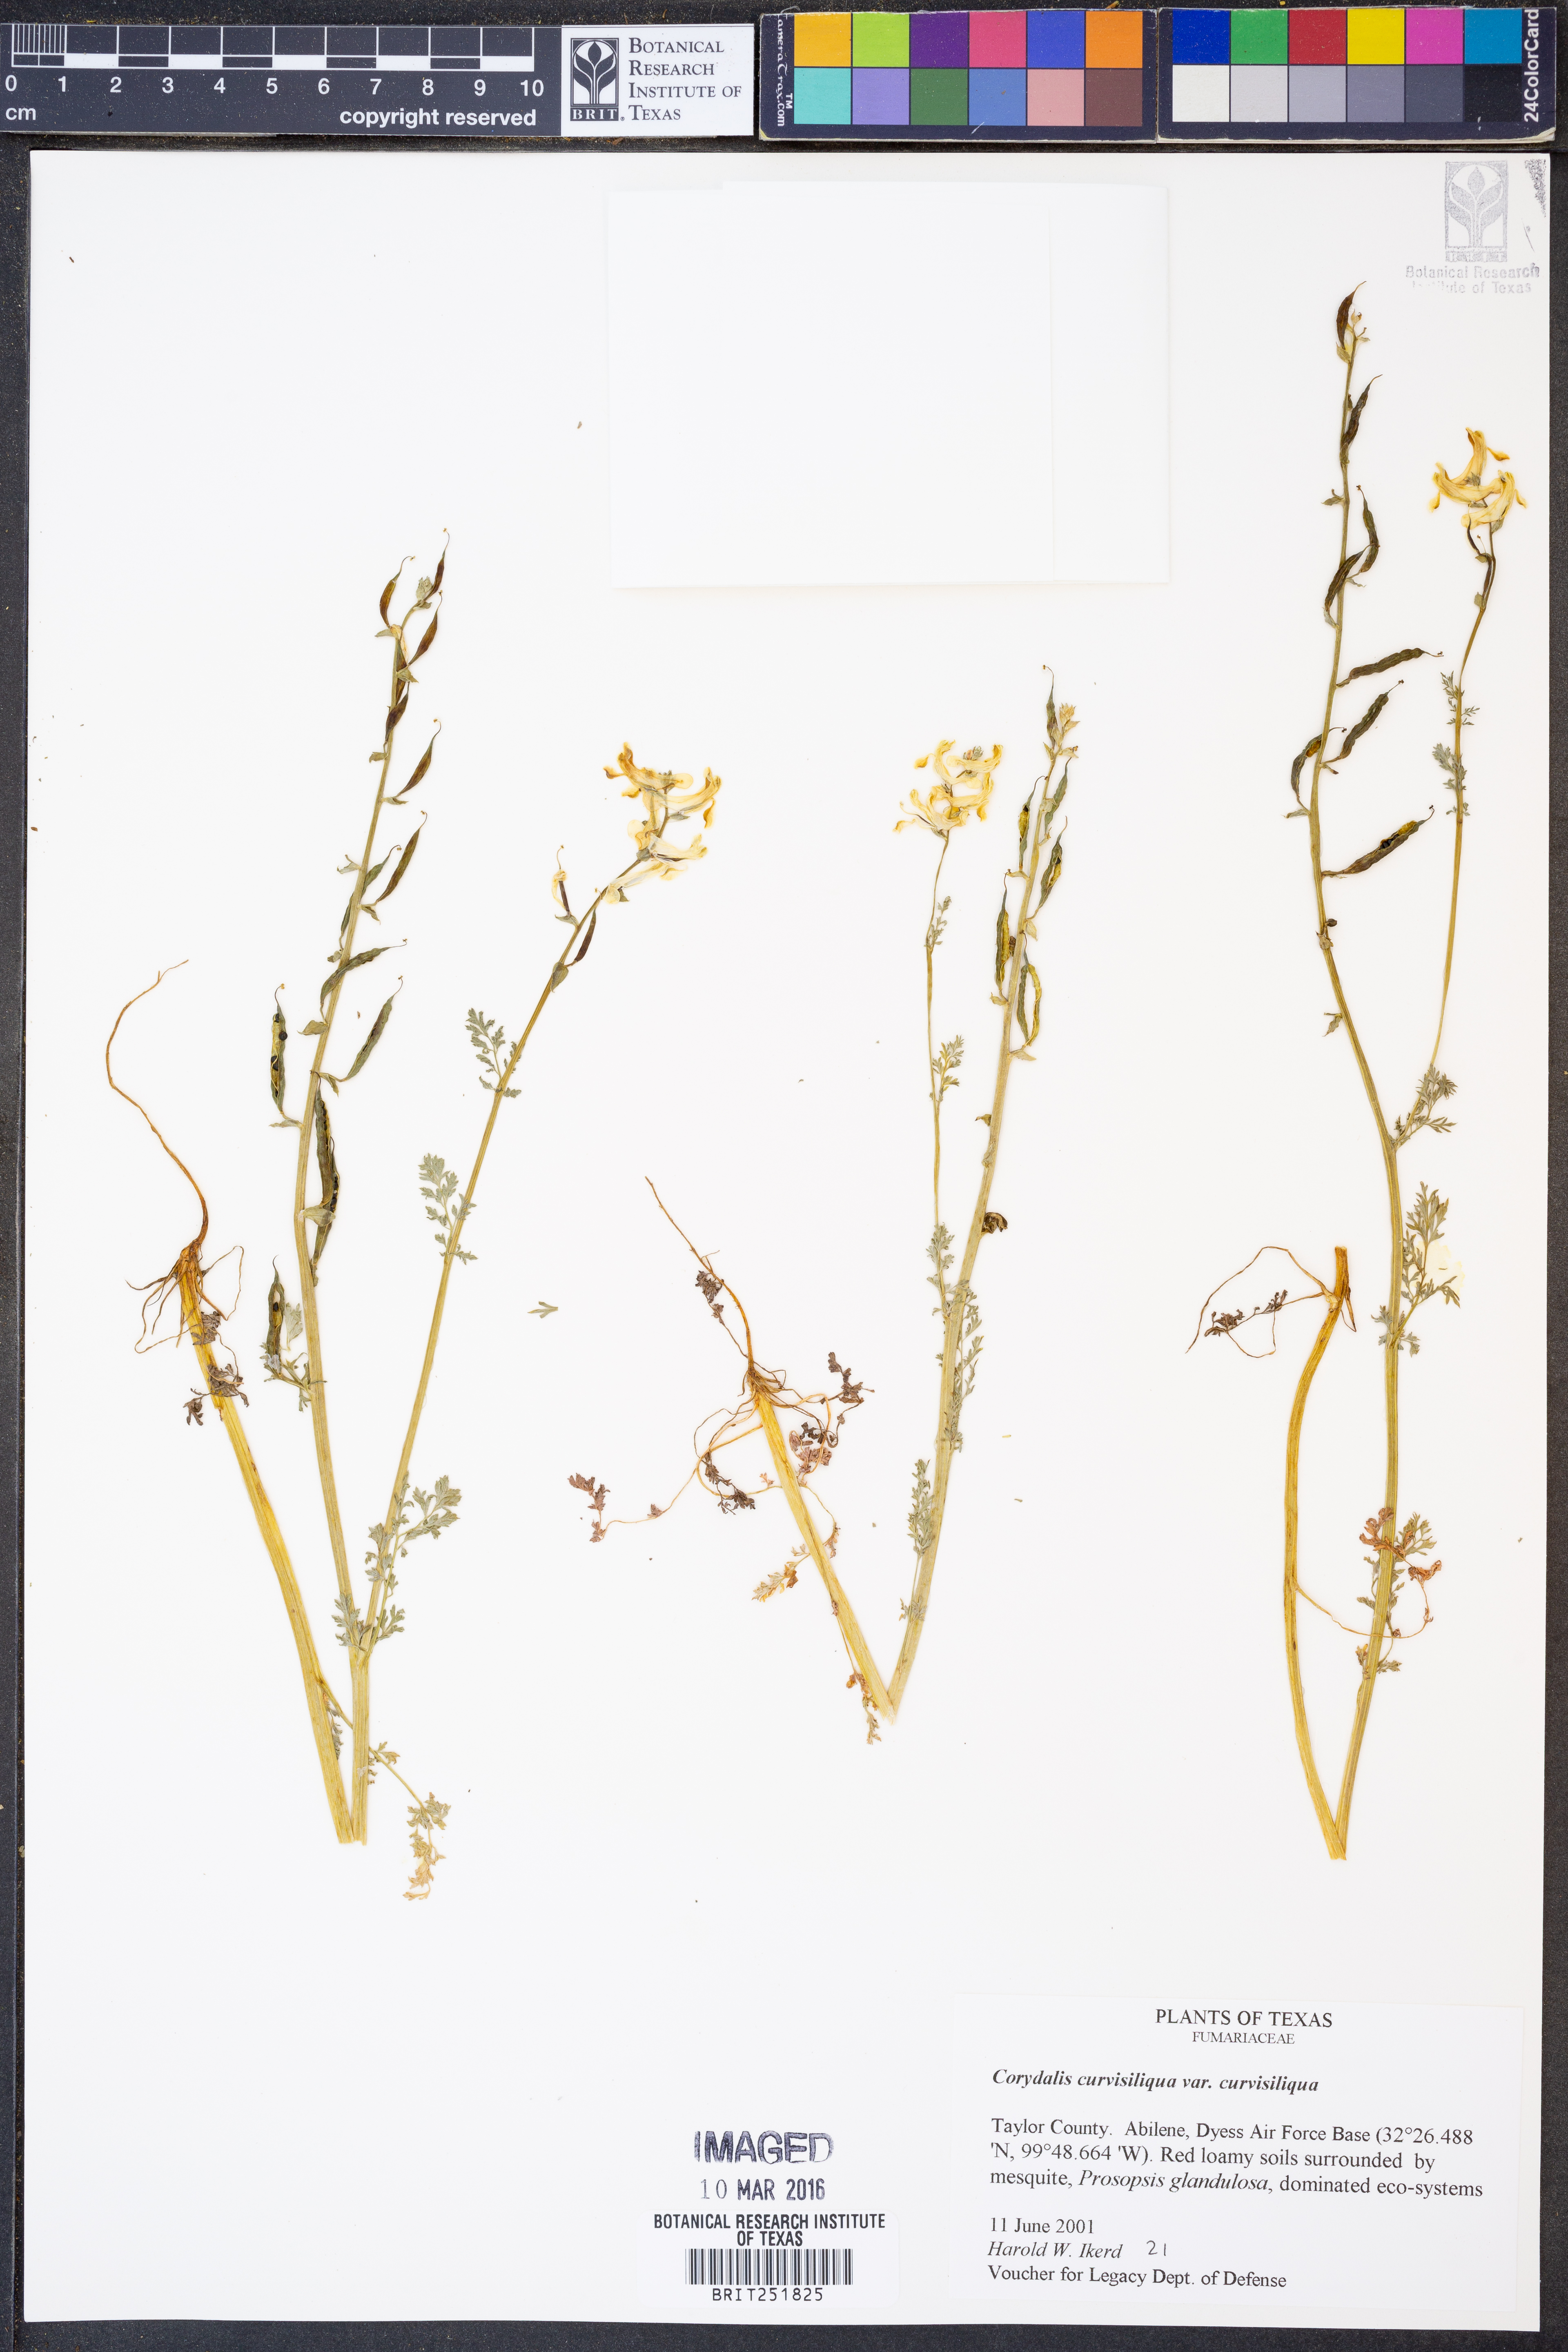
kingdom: Plantae
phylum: Tracheophyta
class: Magnoliopsida
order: Ranunculales
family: Papaveraceae
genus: Corydalis
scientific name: Corydalis curvisiliqua
